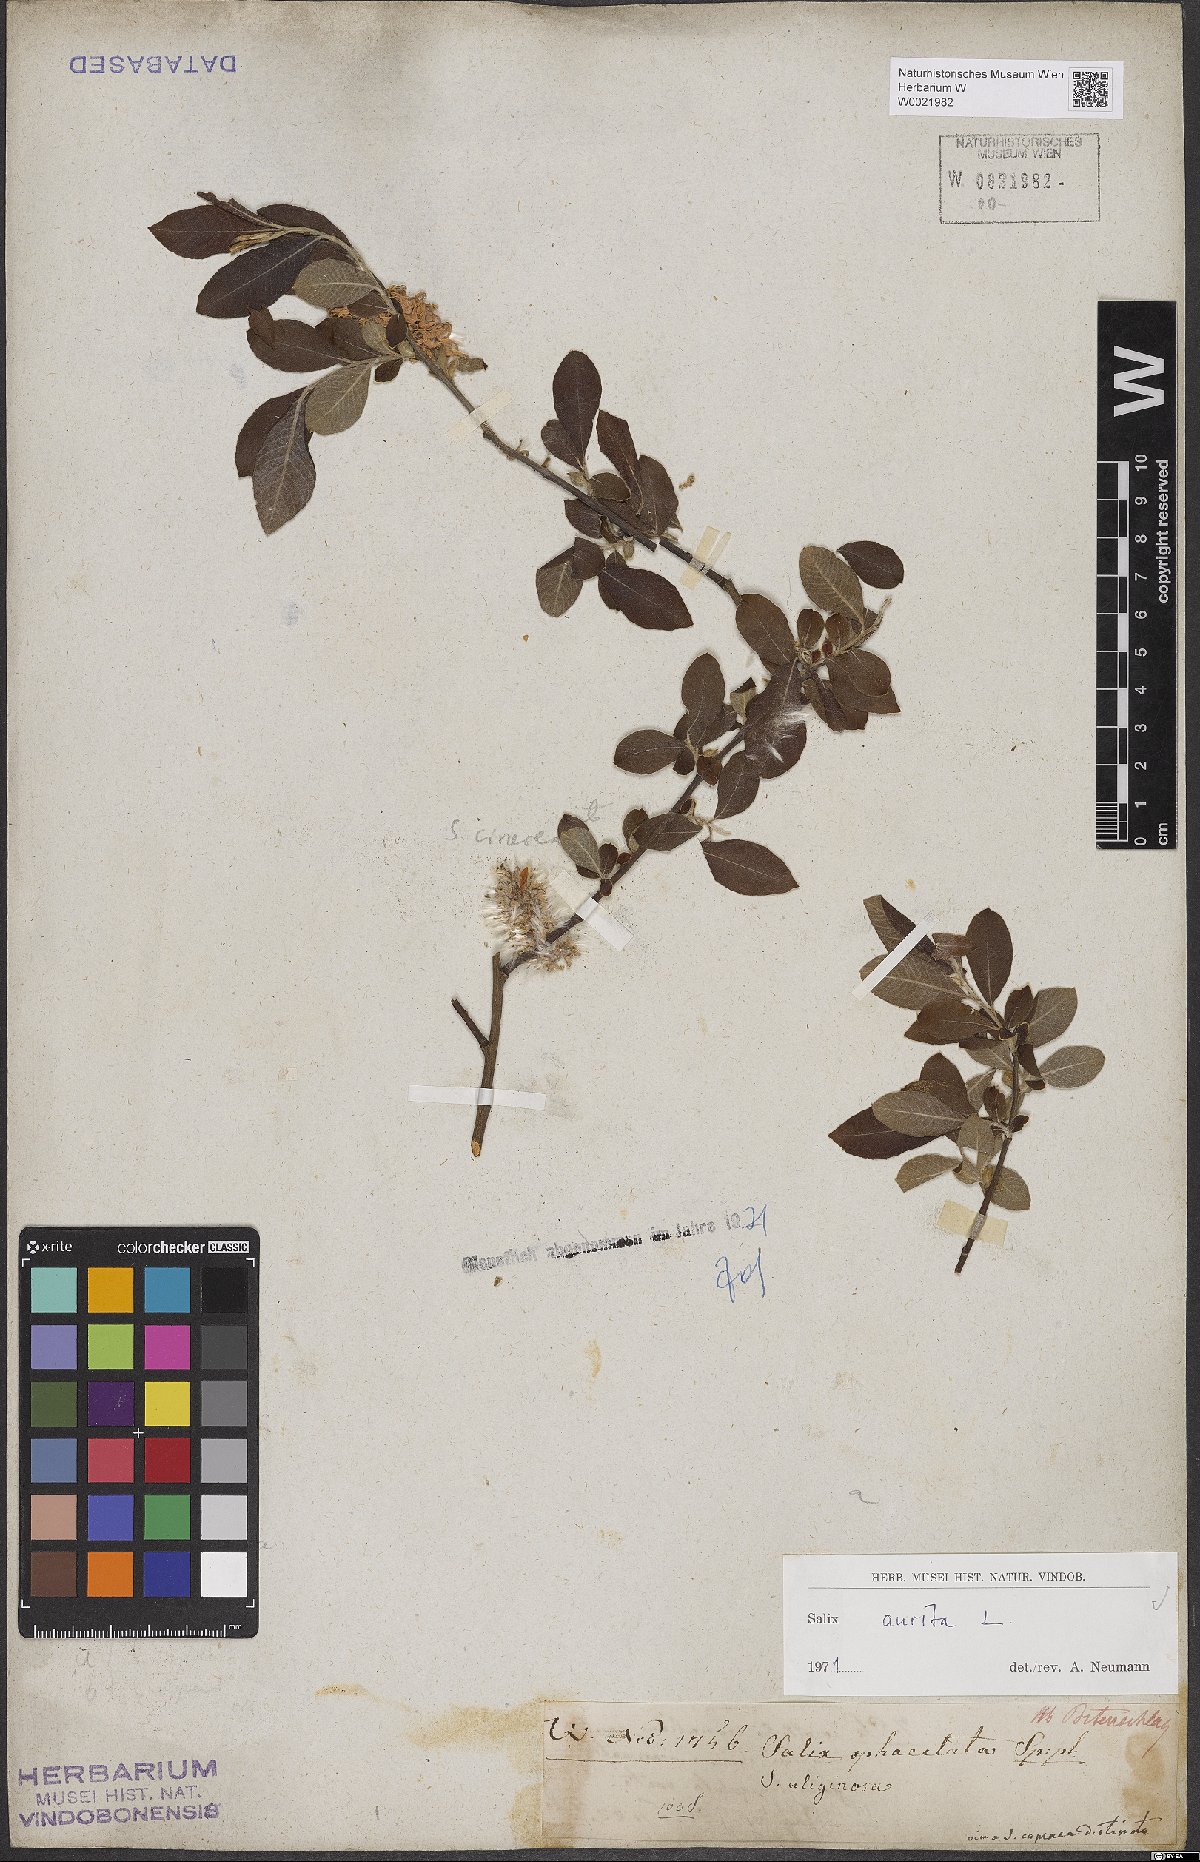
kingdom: Plantae
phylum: Tracheophyta
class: Magnoliopsida
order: Malpighiales
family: Salicaceae
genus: Salix
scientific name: Salix aurita
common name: Eared willow
